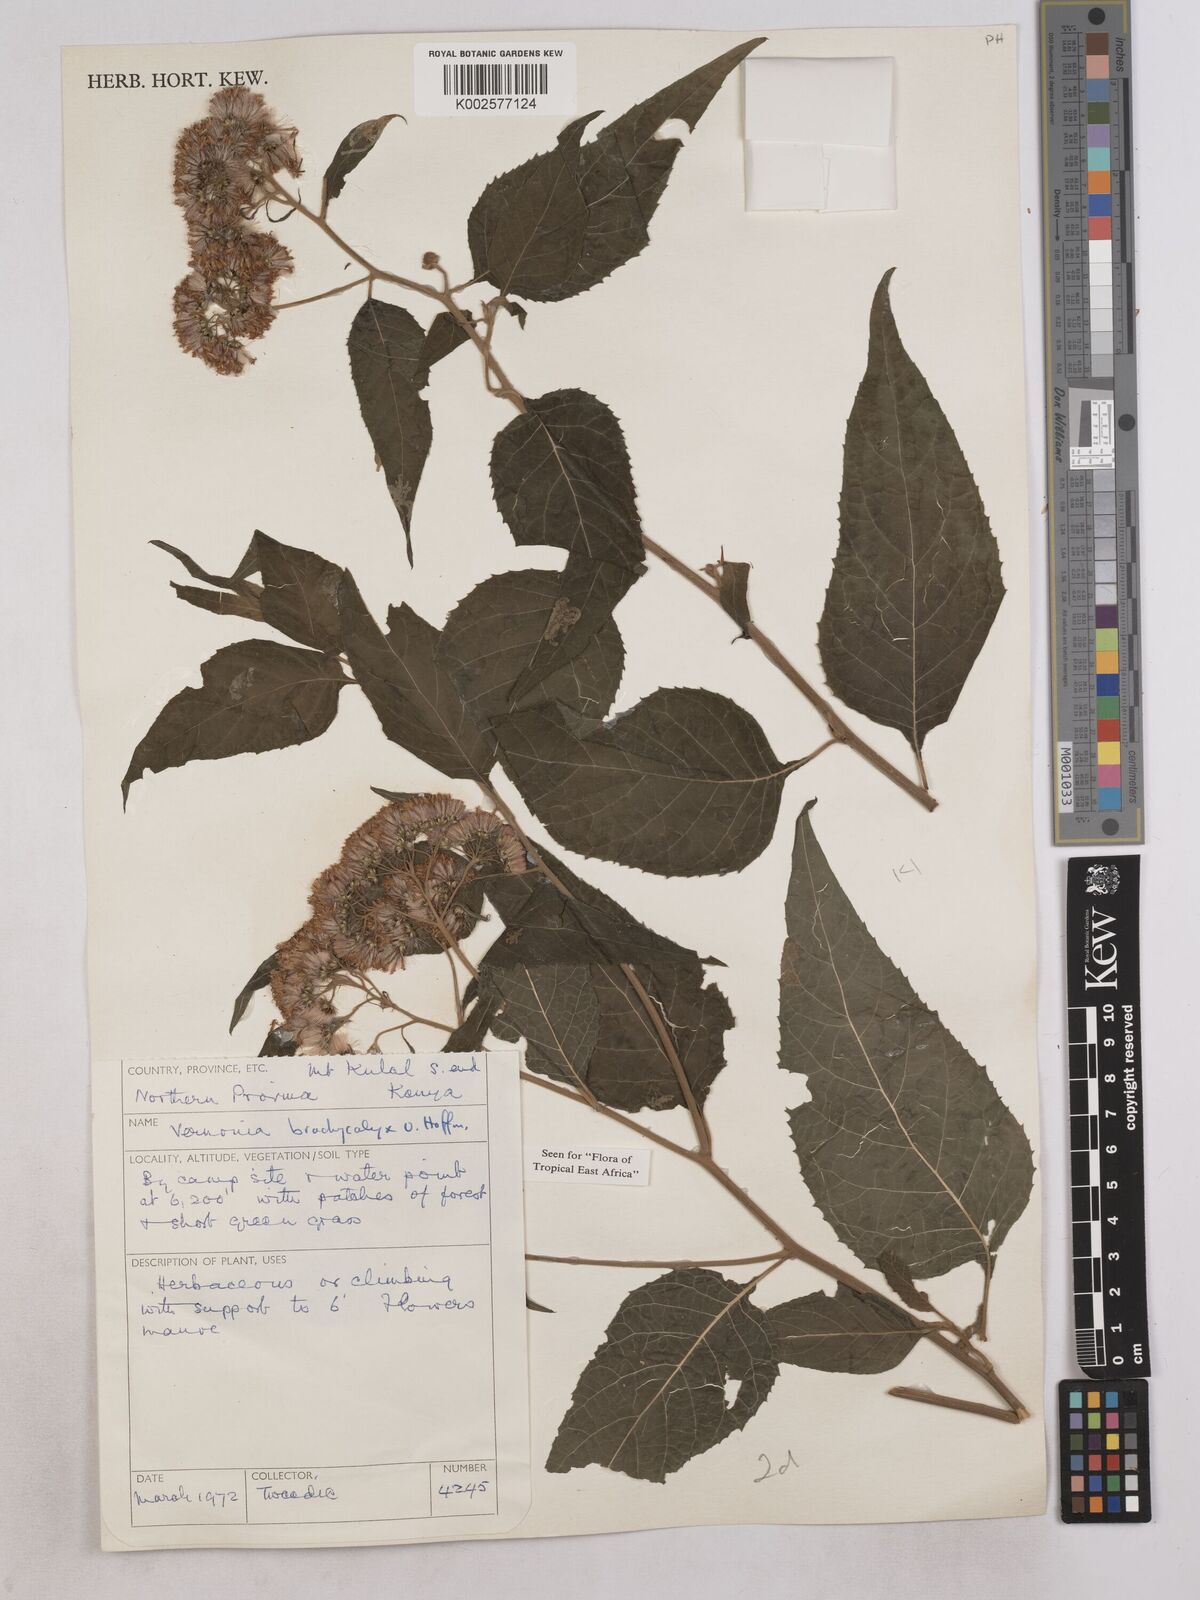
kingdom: Plantae
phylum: Tracheophyta
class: Magnoliopsida
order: Asterales
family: Asteraceae
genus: Hoffmannanthus
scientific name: Hoffmannanthus abbotianus
